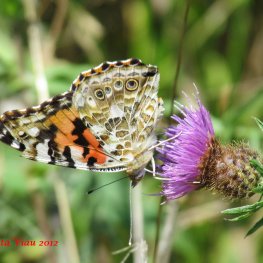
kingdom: Animalia
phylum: Arthropoda
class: Insecta
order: Lepidoptera
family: Nymphalidae
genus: Vanessa
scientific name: Vanessa cardui
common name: Painted Lady
